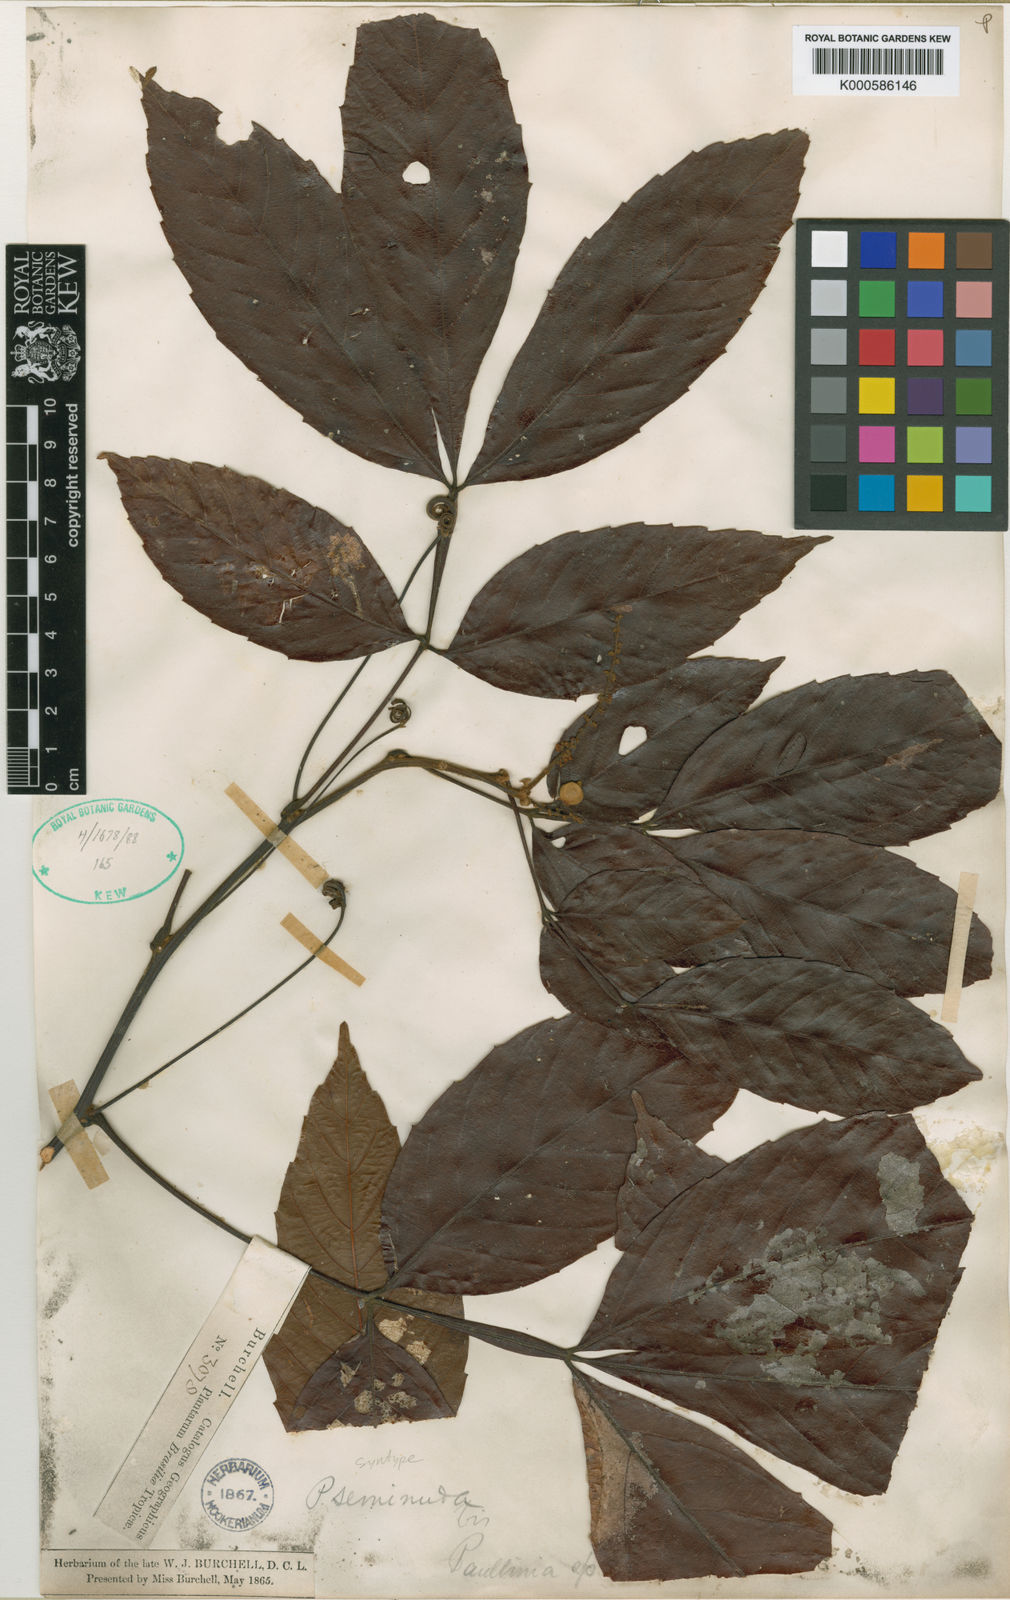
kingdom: Plantae
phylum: Tracheophyta
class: Magnoliopsida
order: Sapindales
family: Sapindaceae
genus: Paullinia
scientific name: Paullinia seminuda
